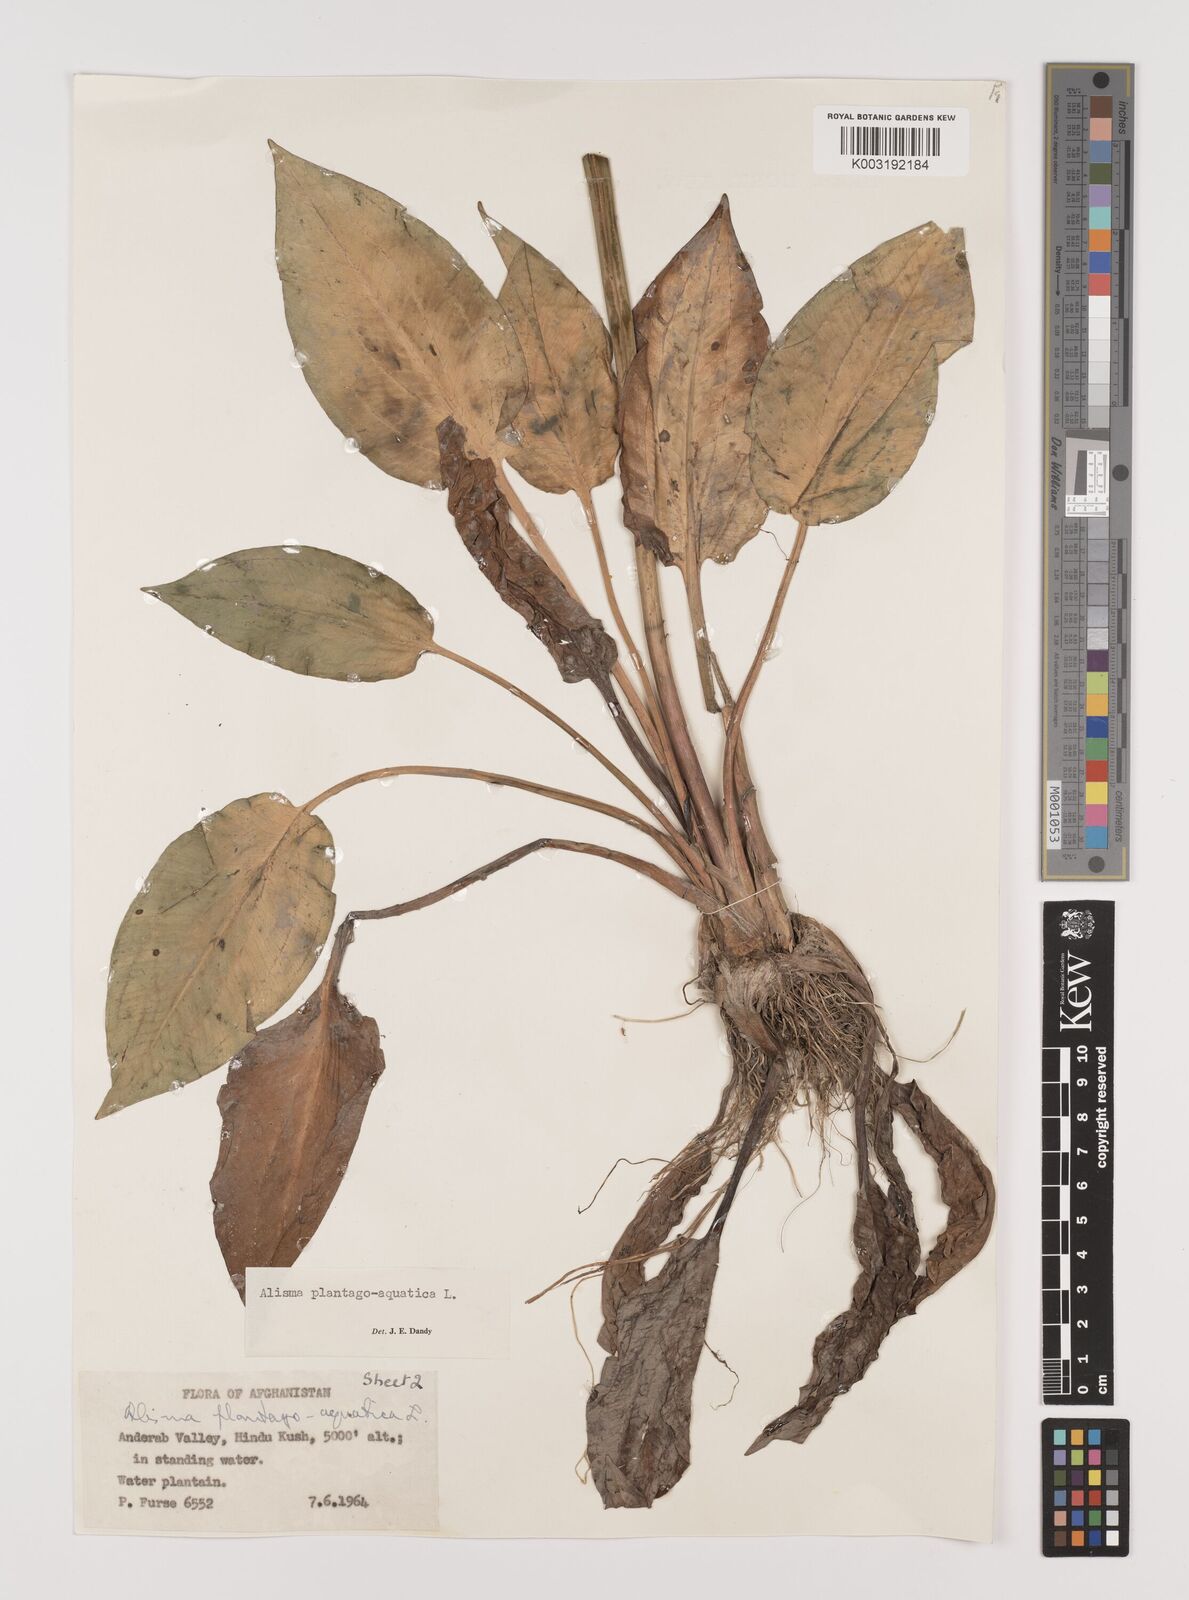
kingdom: Plantae
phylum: Tracheophyta
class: Liliopsida
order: Alismatales
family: Alismataceae
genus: Alisma
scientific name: Alisma plantago-aquatica
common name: Water-plantain
